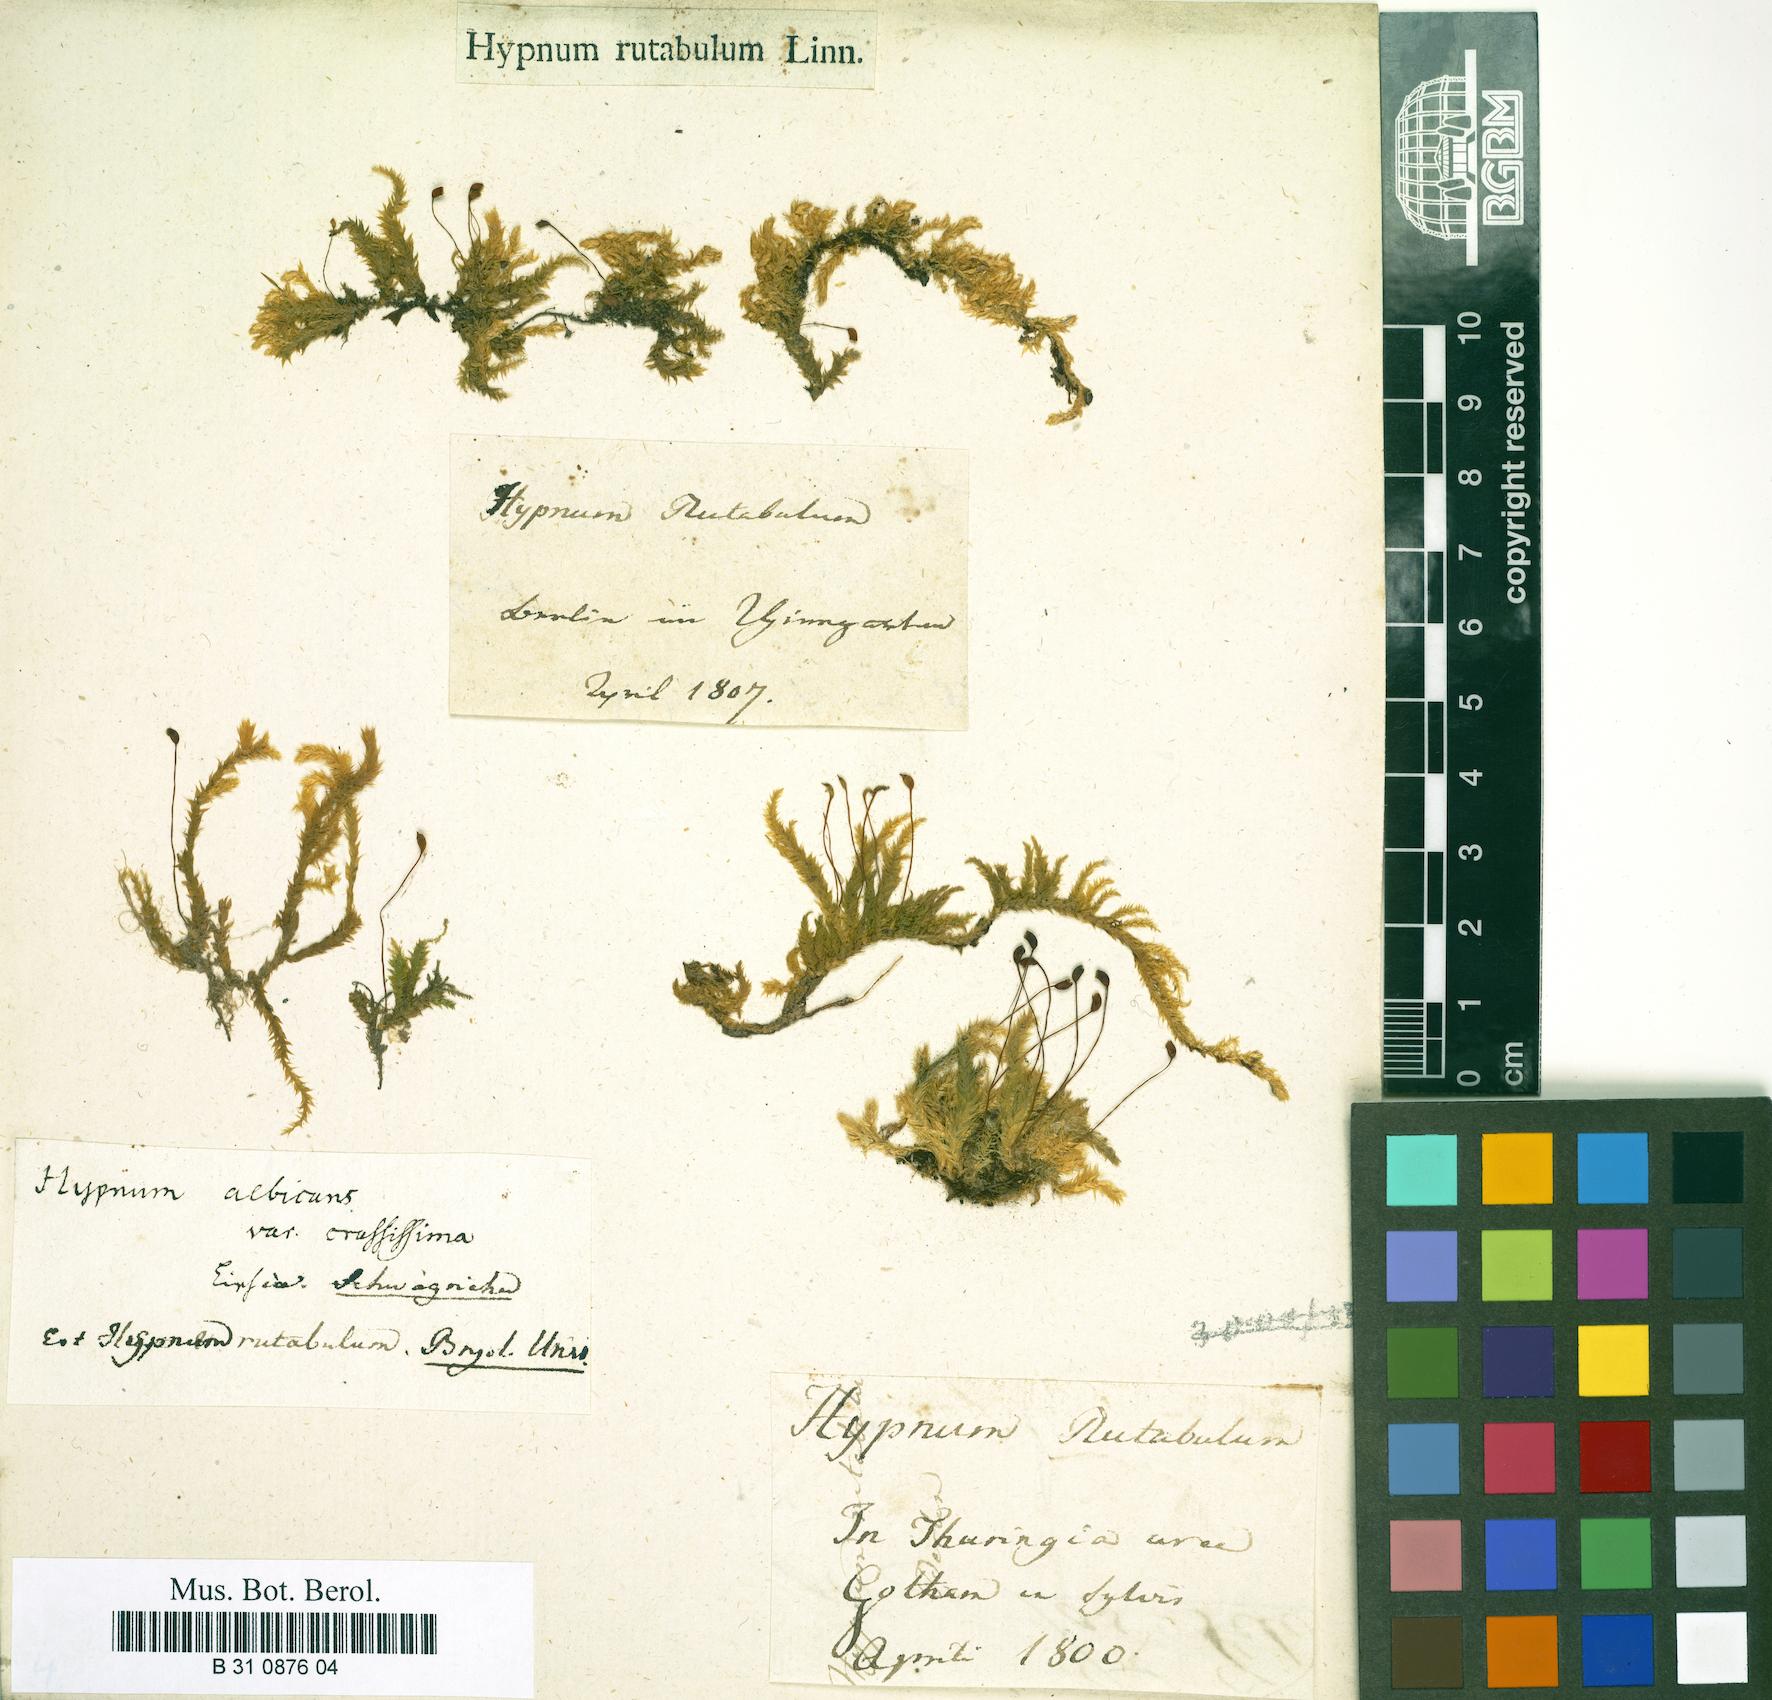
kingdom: Plantae
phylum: Bryophyta
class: Bryopsida
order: Hypnales
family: Brachytheciaceae
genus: Brachythecium
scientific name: Brachythecium rutabulum
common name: Rough-stalked feather-moss
